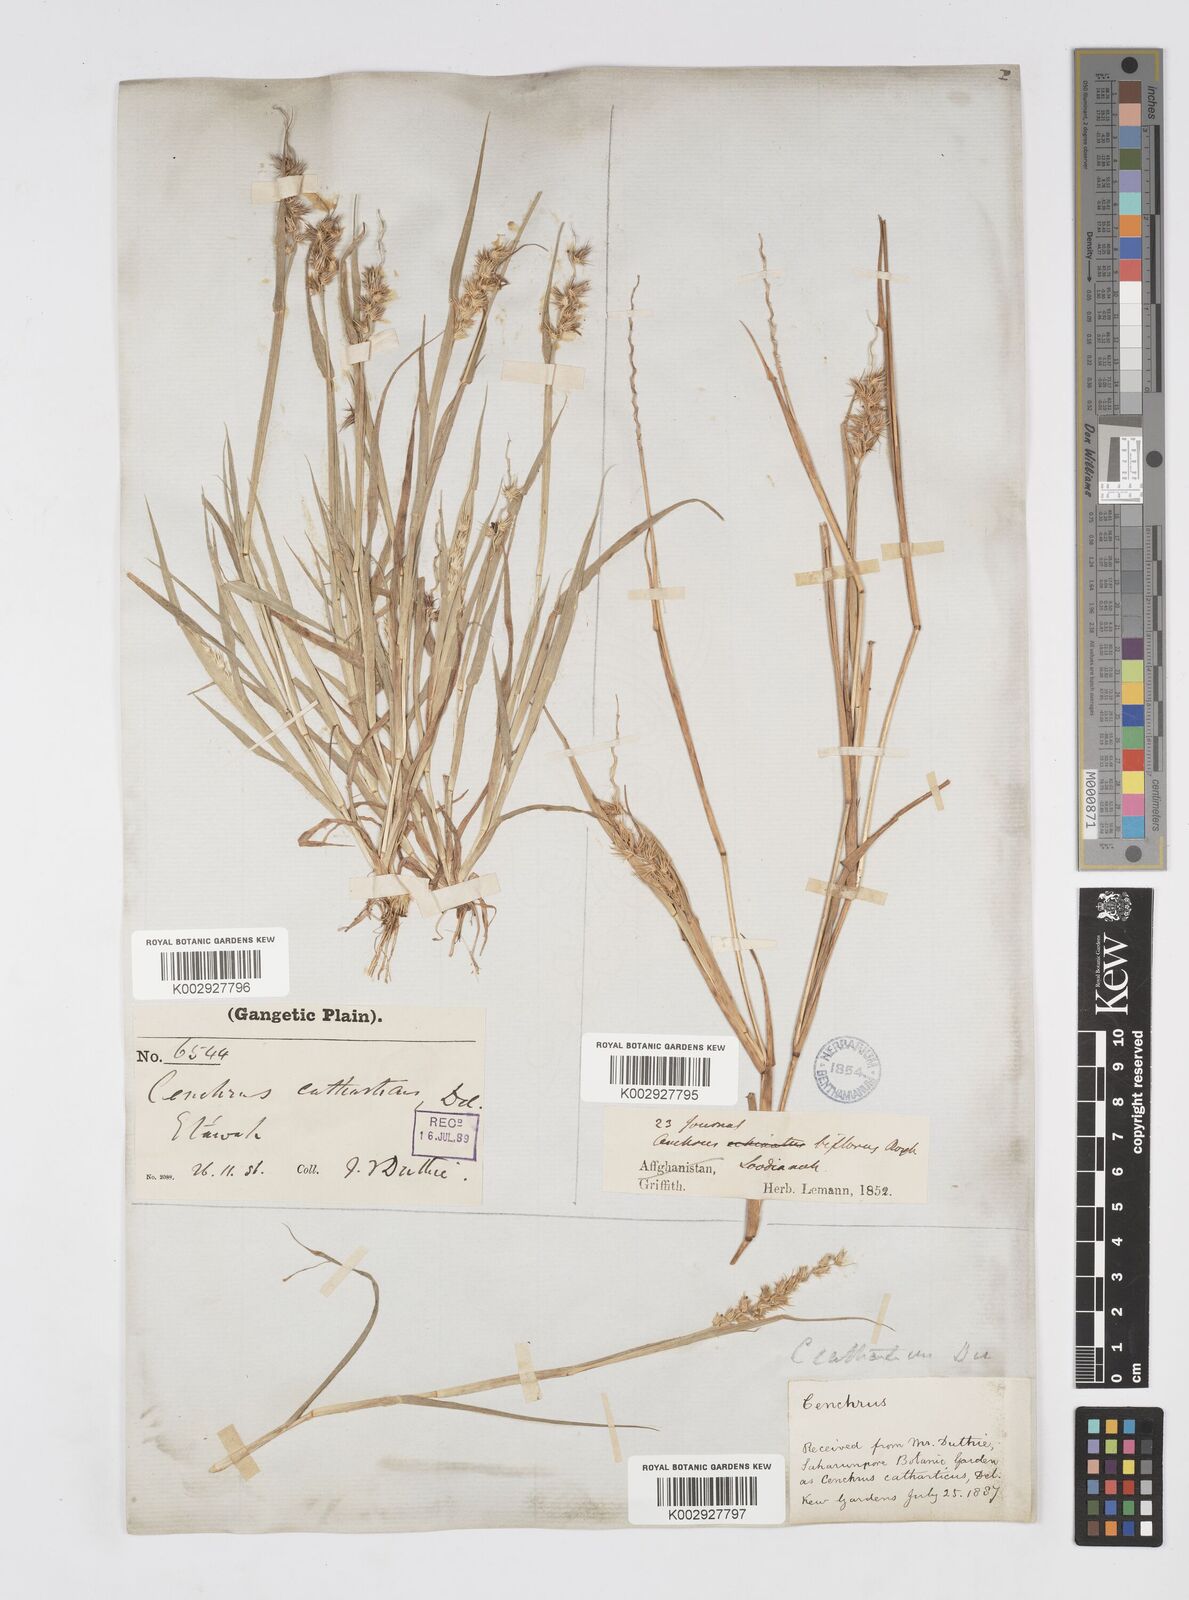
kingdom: Plantae
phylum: Tracheophyta
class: Liliopsida
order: Poales
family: Poaceae
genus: Cenchrus
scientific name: Cenchrus biflorus
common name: Indian sandbur
